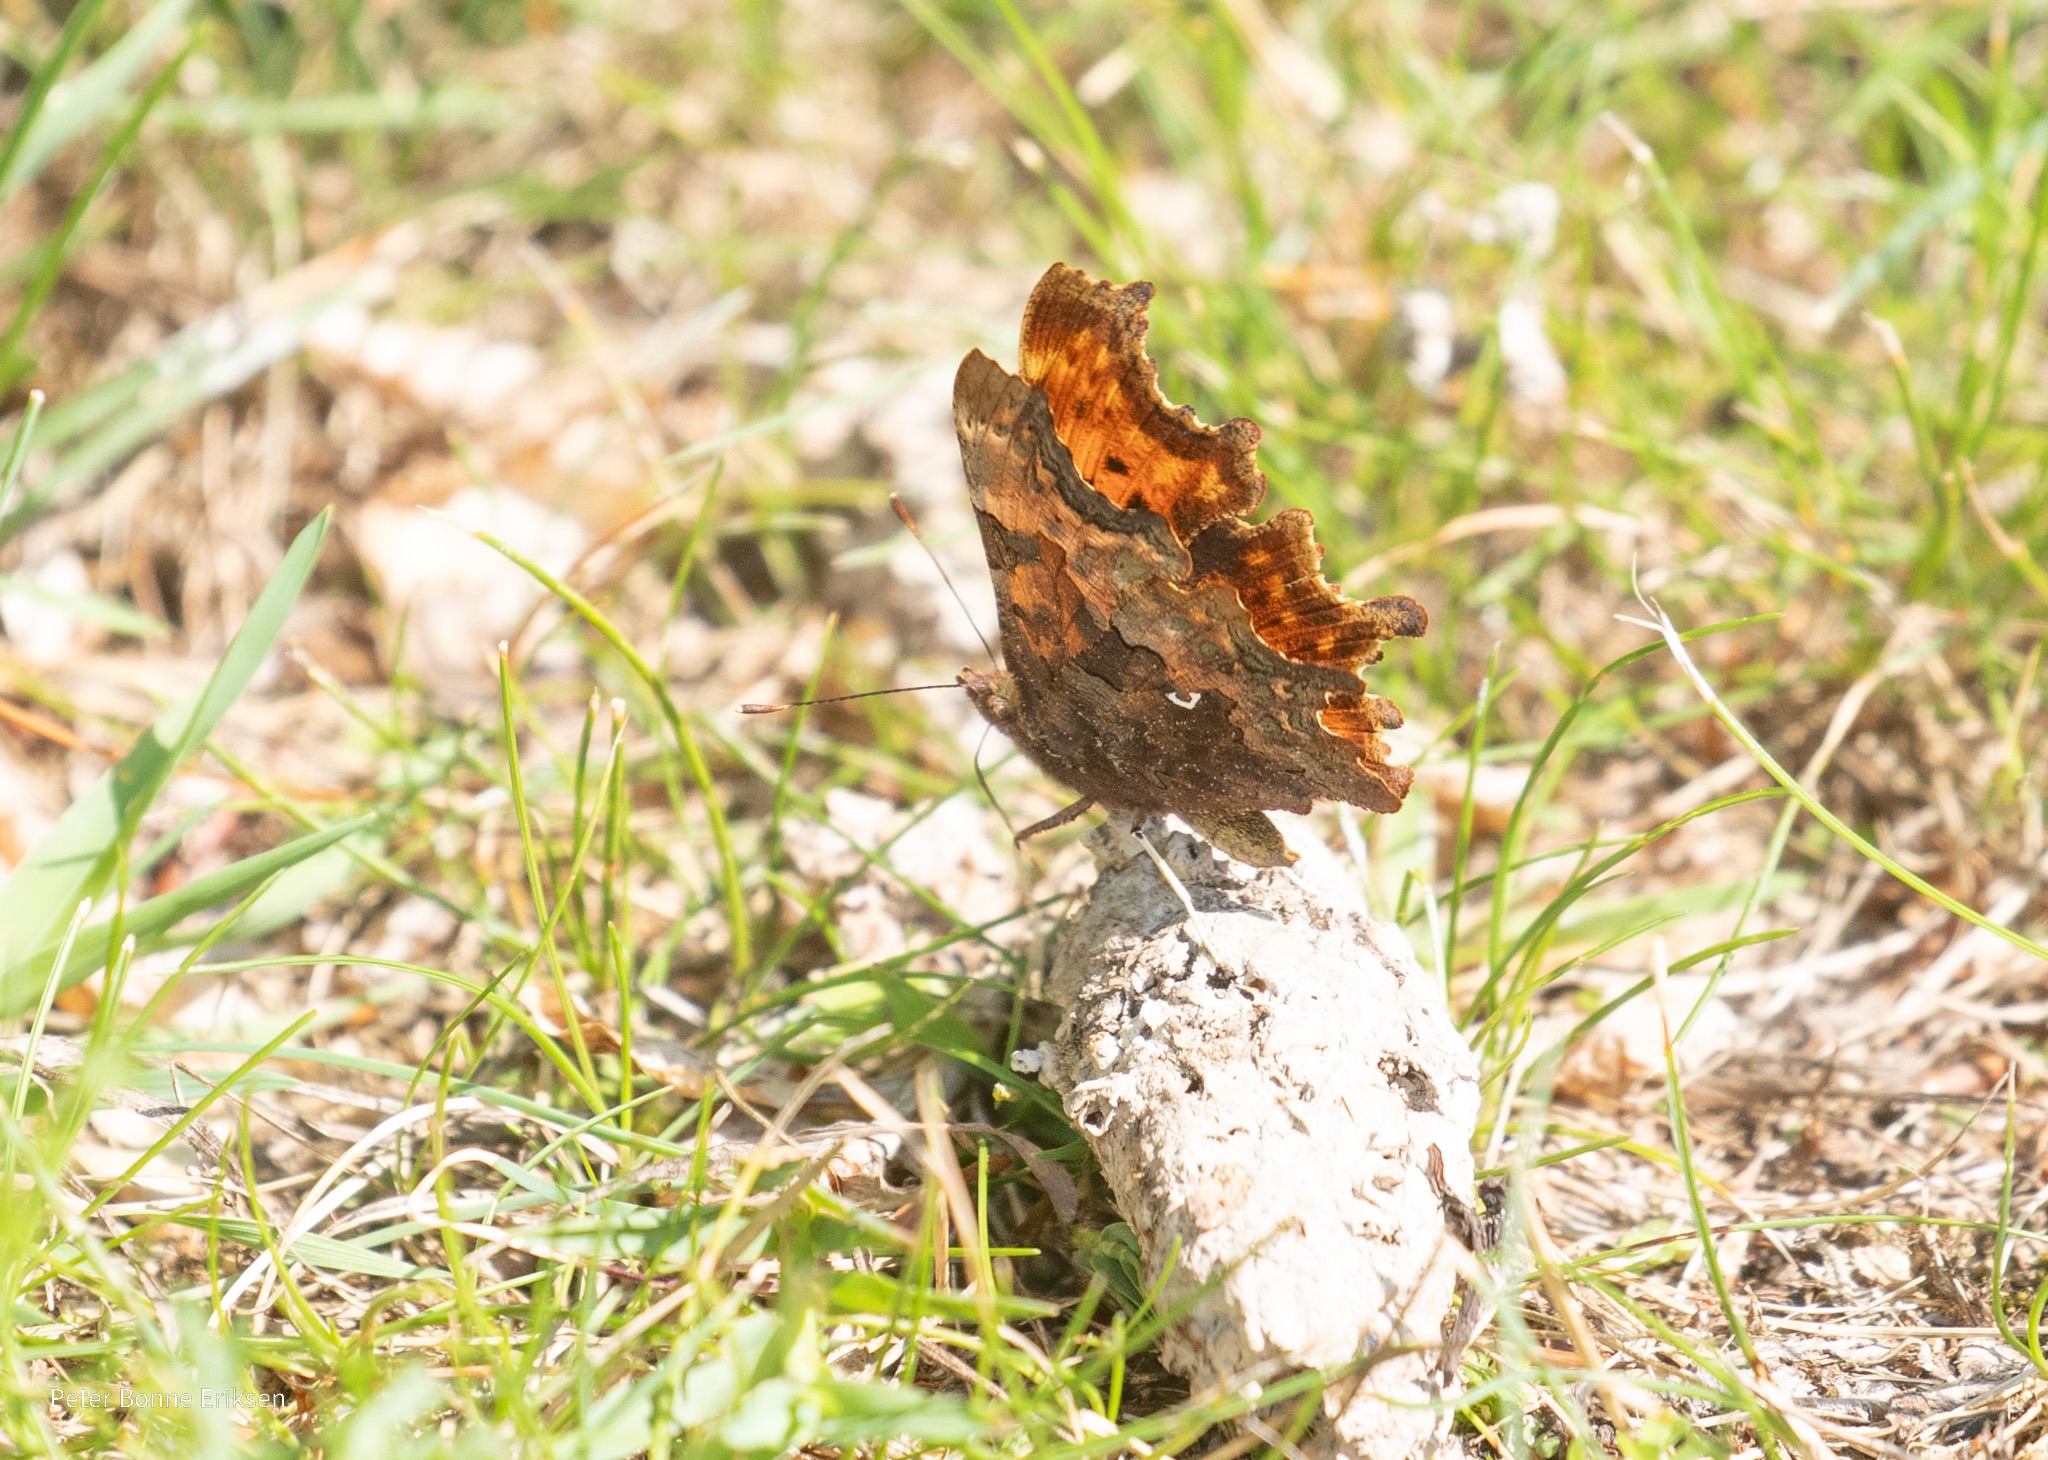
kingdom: Animalia
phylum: Arthropoda
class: Insecta
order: Lepidoptera
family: Nymphalidae
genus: Polygonia
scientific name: Polygonia c-album
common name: Det hvide C
